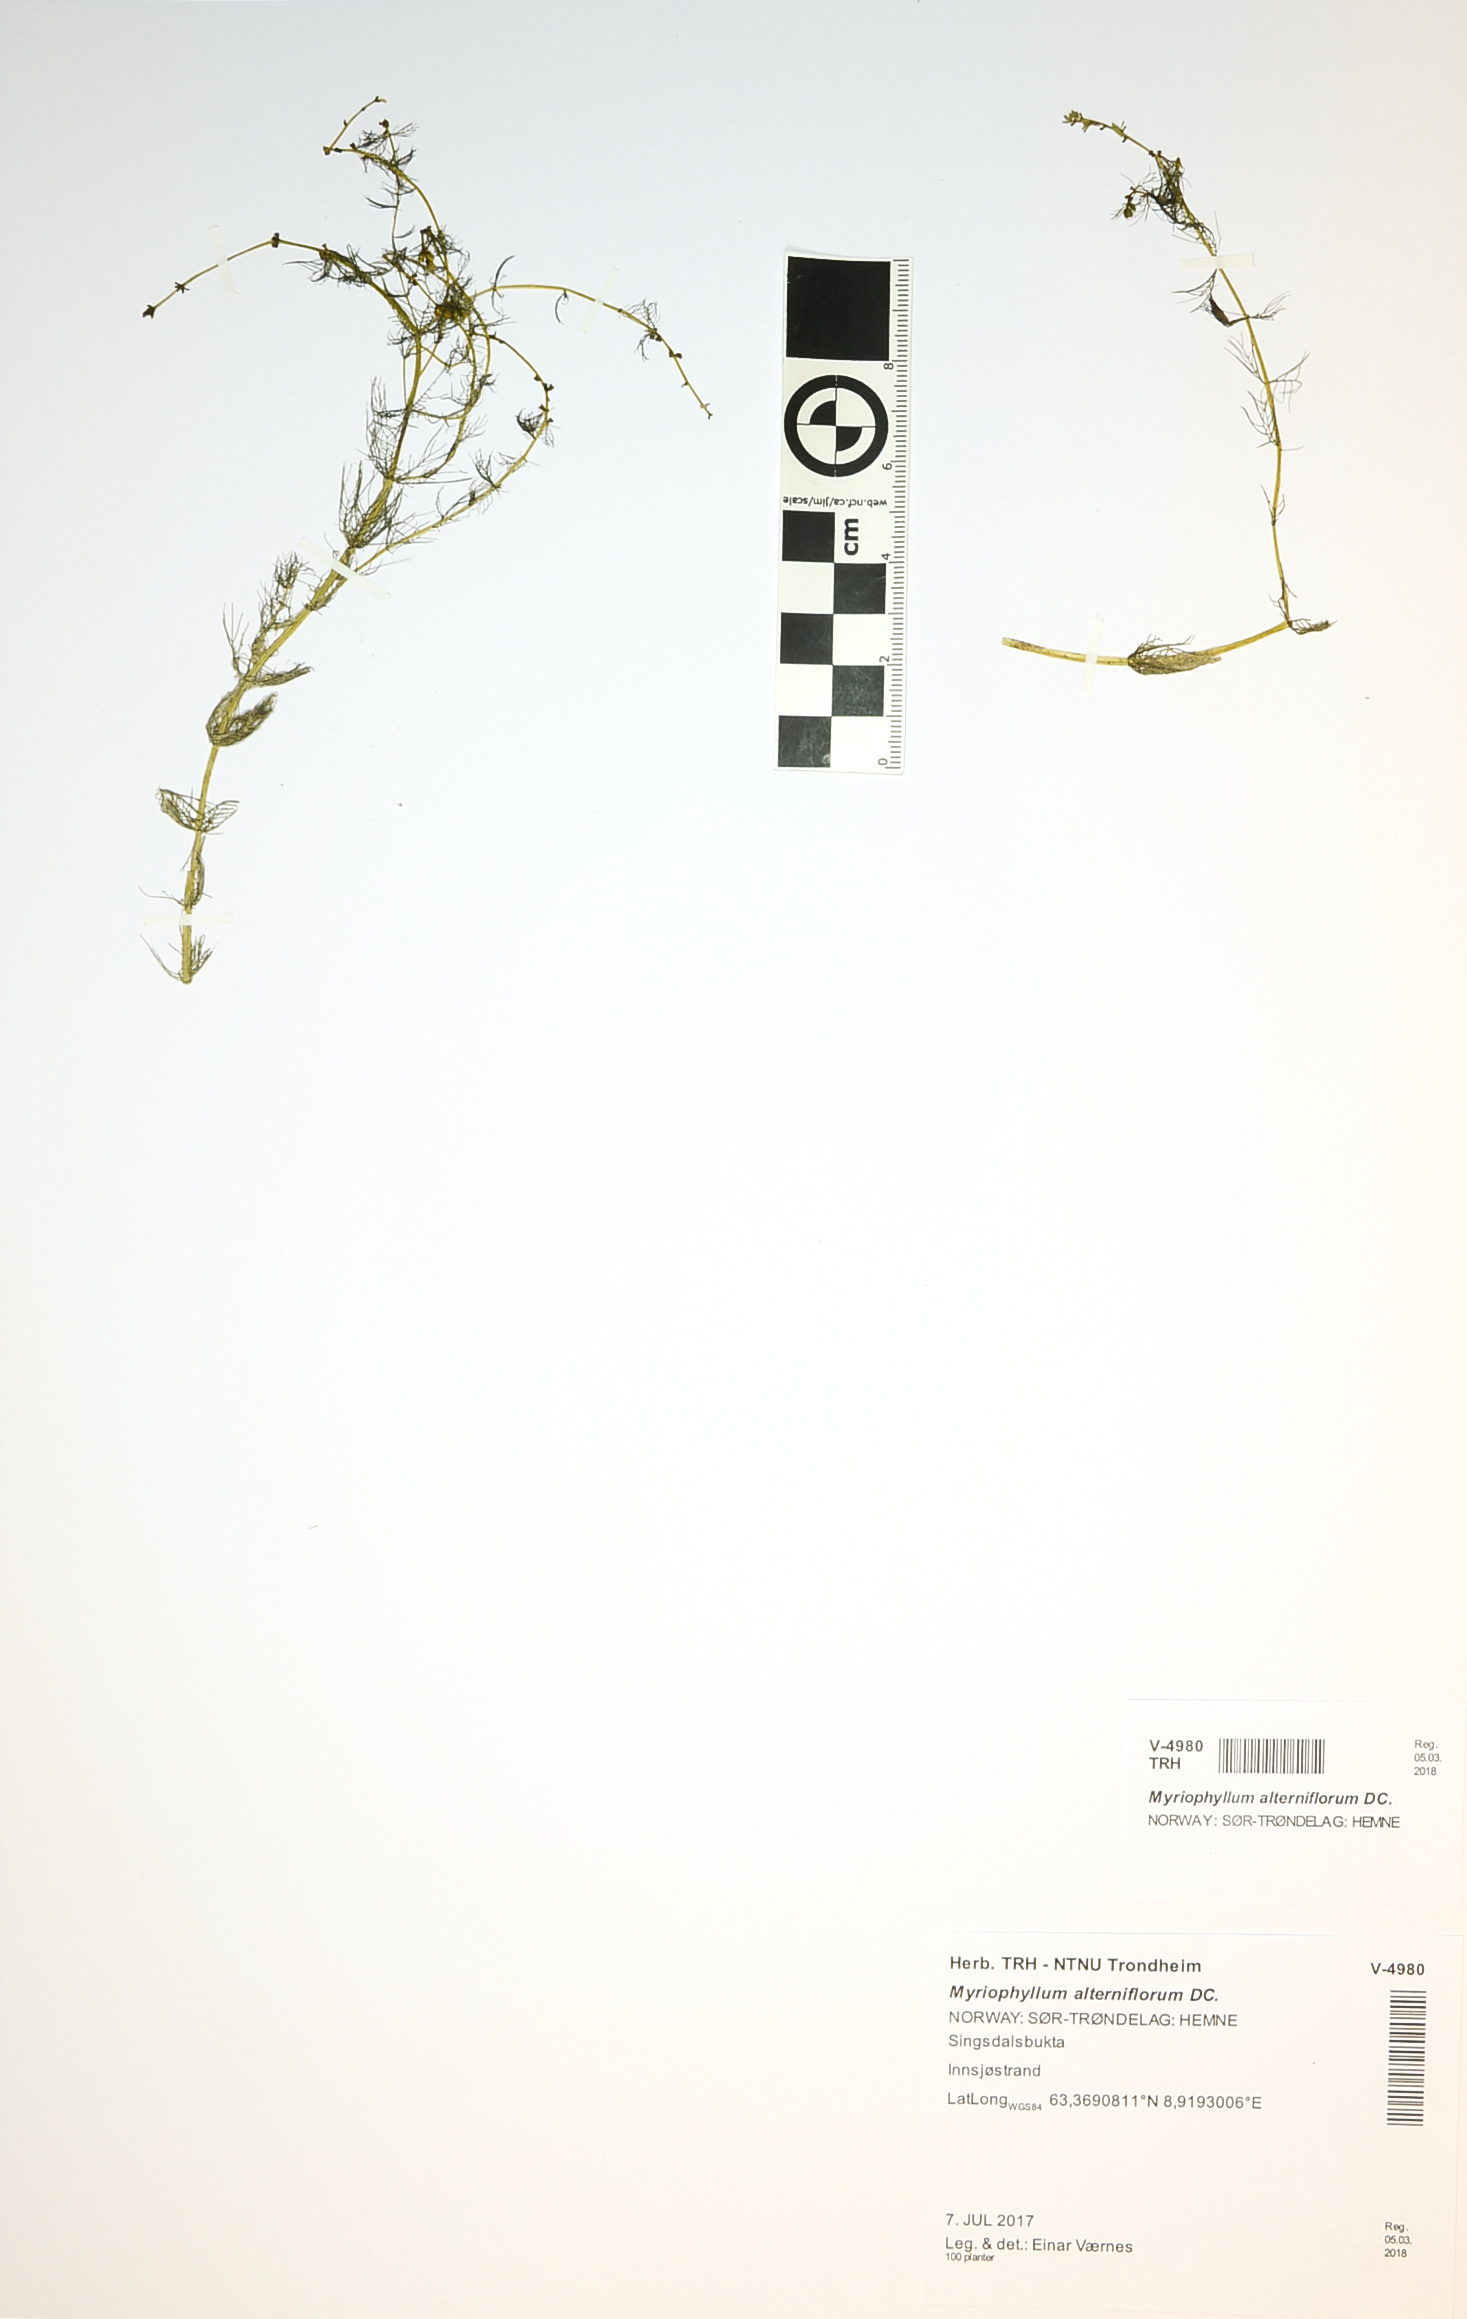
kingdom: Plantae
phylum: Tracheophyta
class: Magnoliopsida
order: Saxifragales
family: Haloragaceae
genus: Myriophyllum
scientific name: Myriophyllum alterniflorum
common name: Alternate water-milfoil
